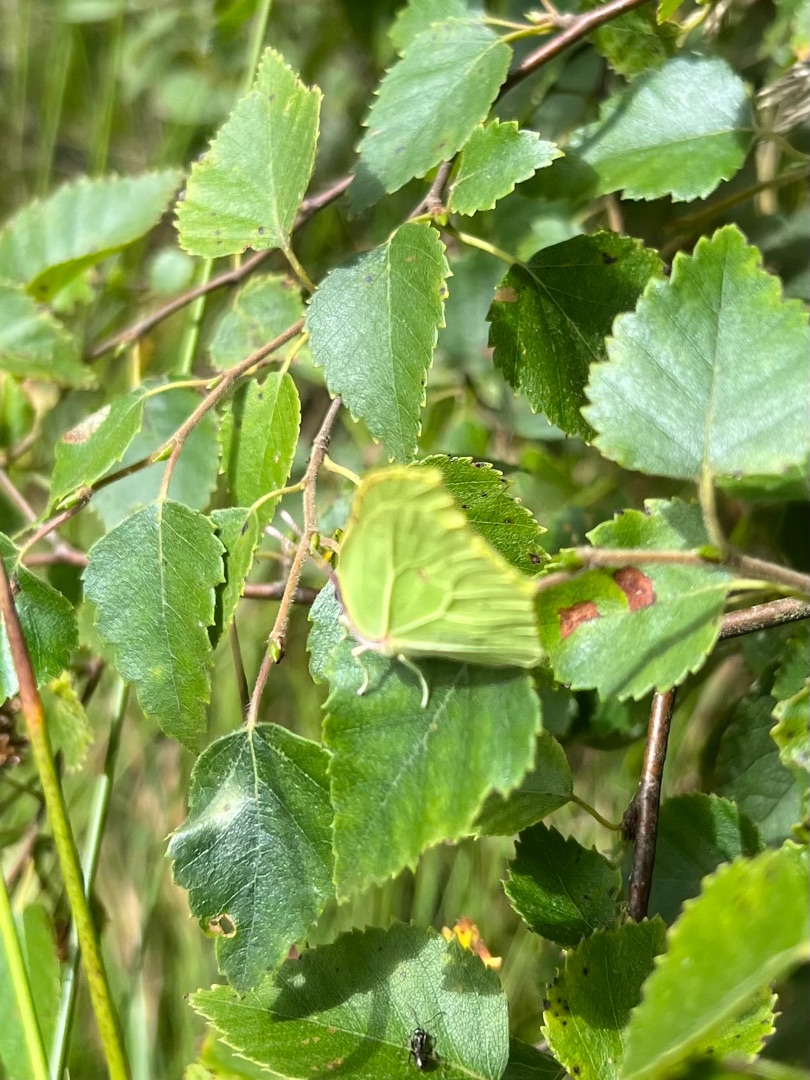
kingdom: Animalia
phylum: Arthropoda
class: Insecta
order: Lepidoptera
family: Pieridae
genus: Gonepteryx
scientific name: Gonepteryx rhamni
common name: Citronsommerfugl
